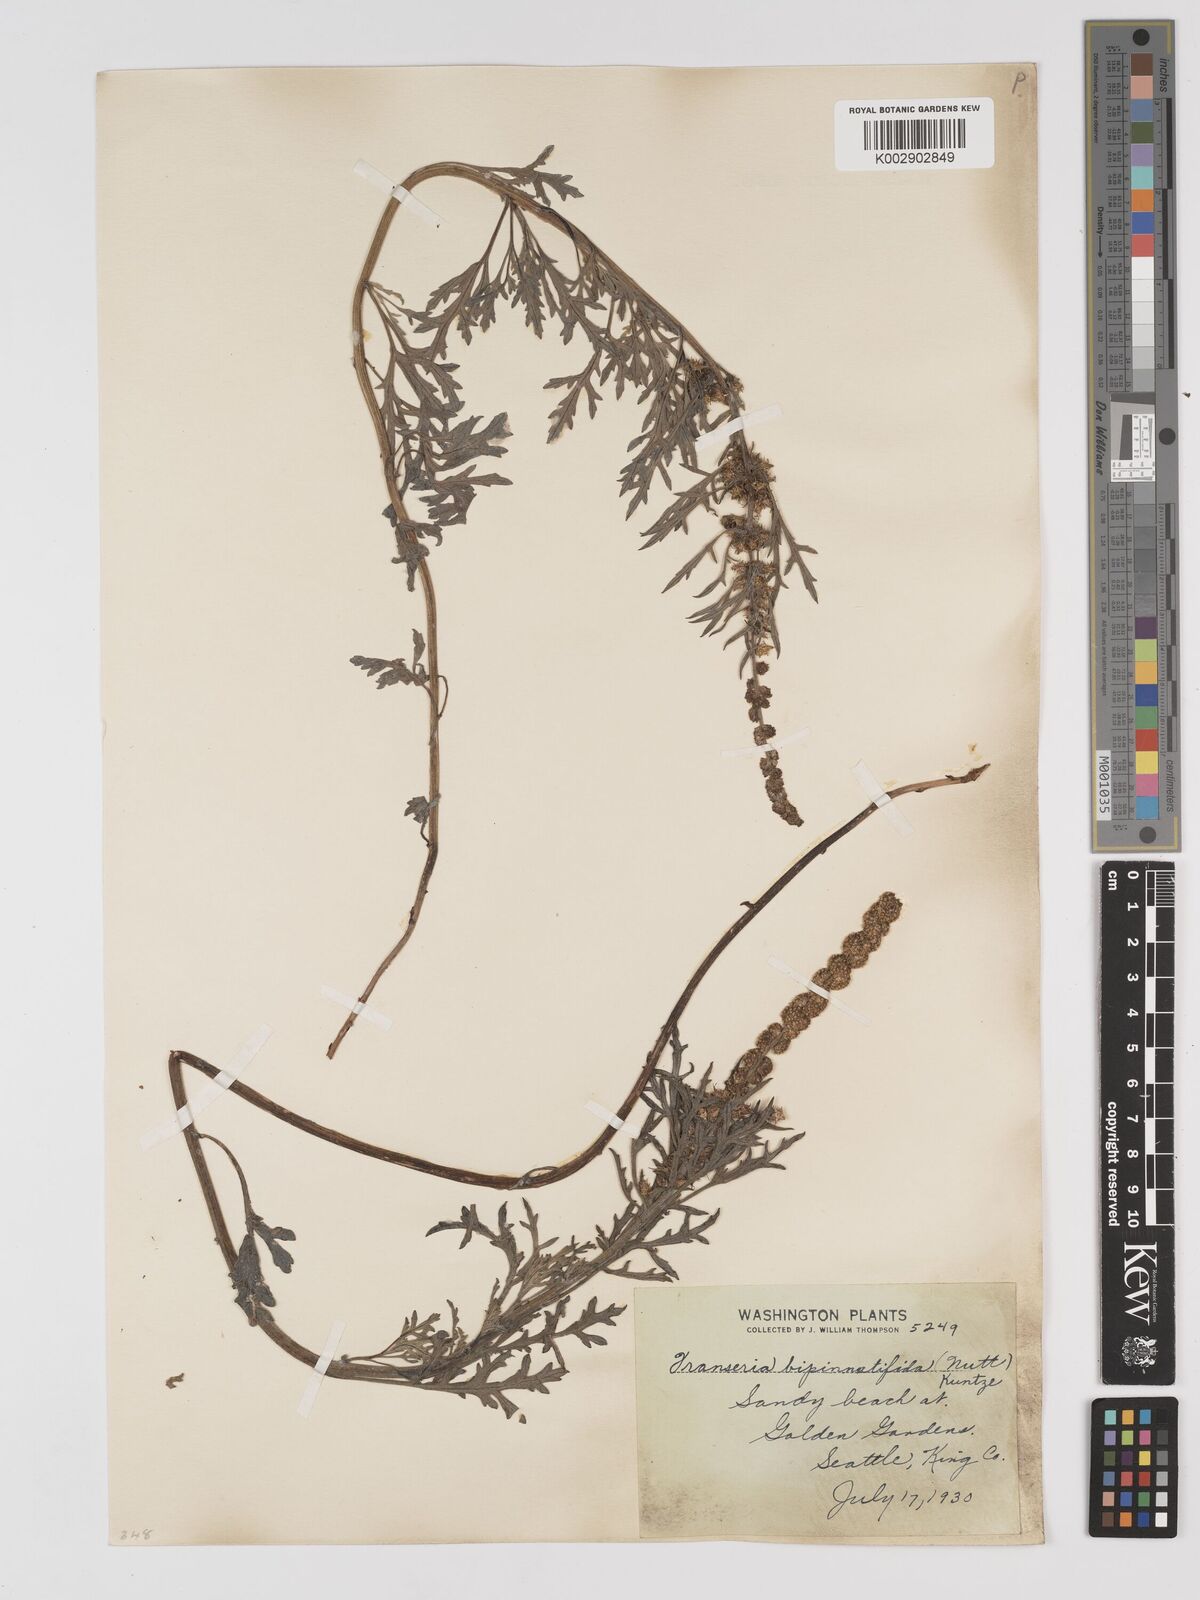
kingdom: Plantae
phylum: Tracheophyta
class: Magnoliopsida
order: Asterales
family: Asteraceae
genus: Ambrosia
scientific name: Ambrosia camphorata
